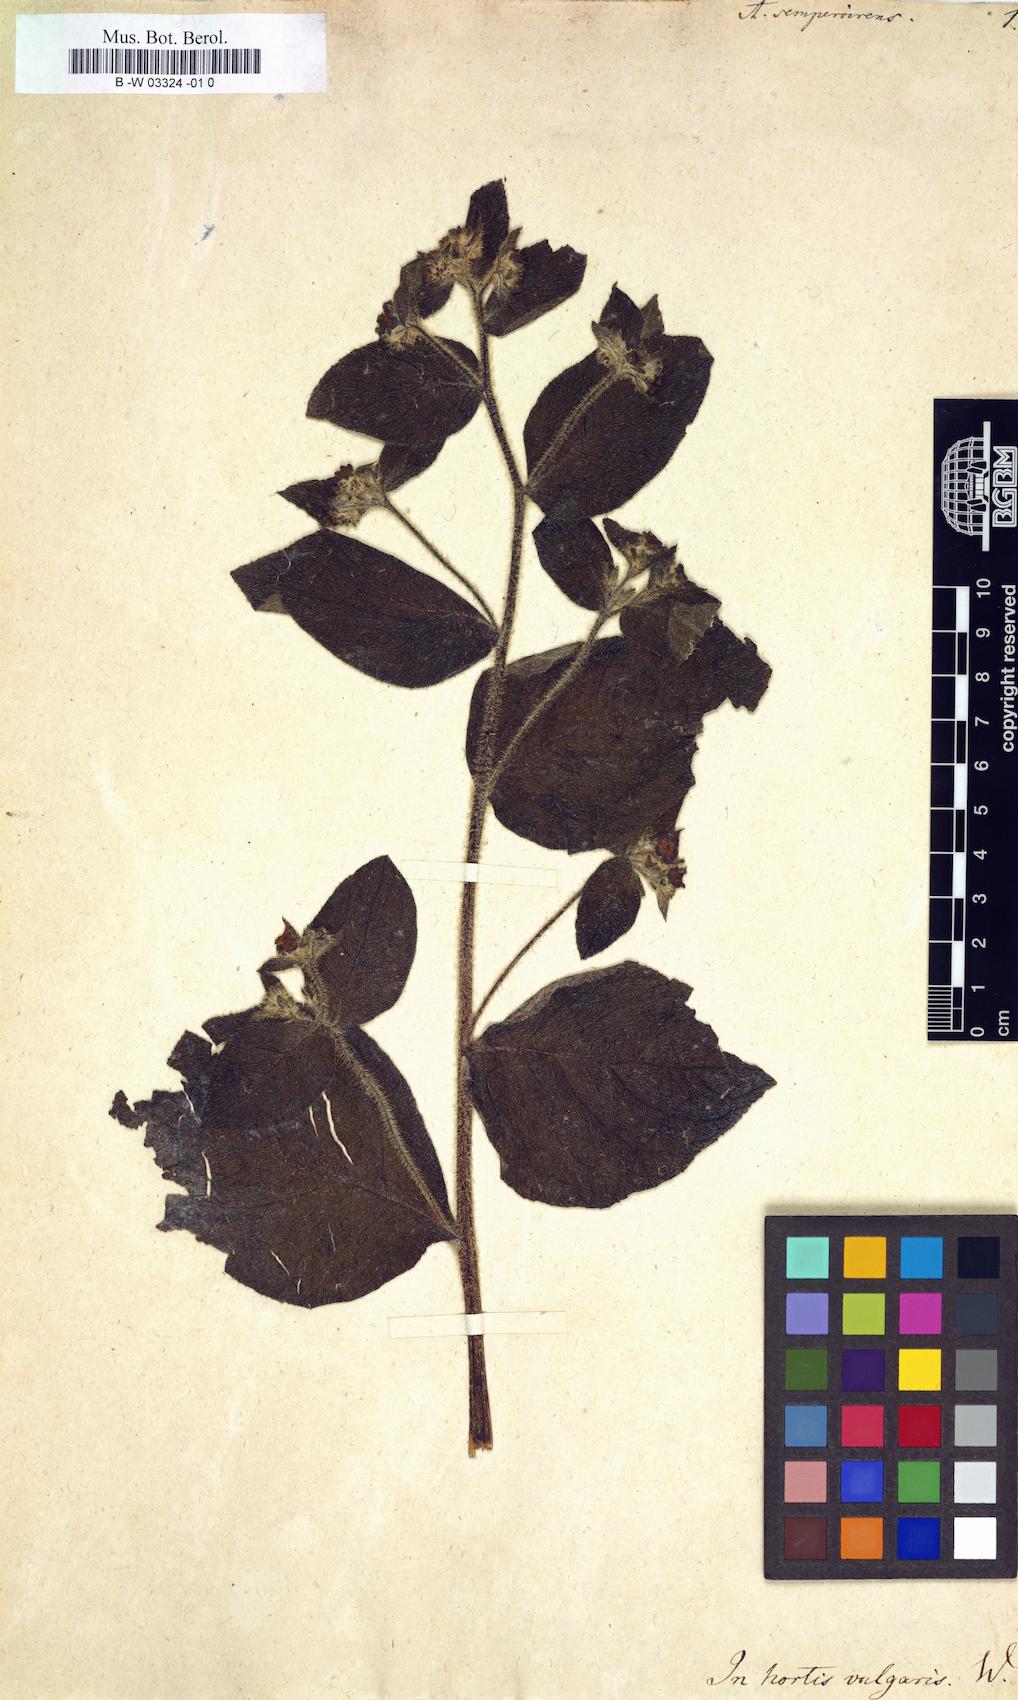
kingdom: Plantae
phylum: Tracheophyta
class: Magnoliopsida
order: Boraginales
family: Boraginaceae
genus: Pentaglottis
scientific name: Pentaglottis sempervirens
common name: Green alkanet
